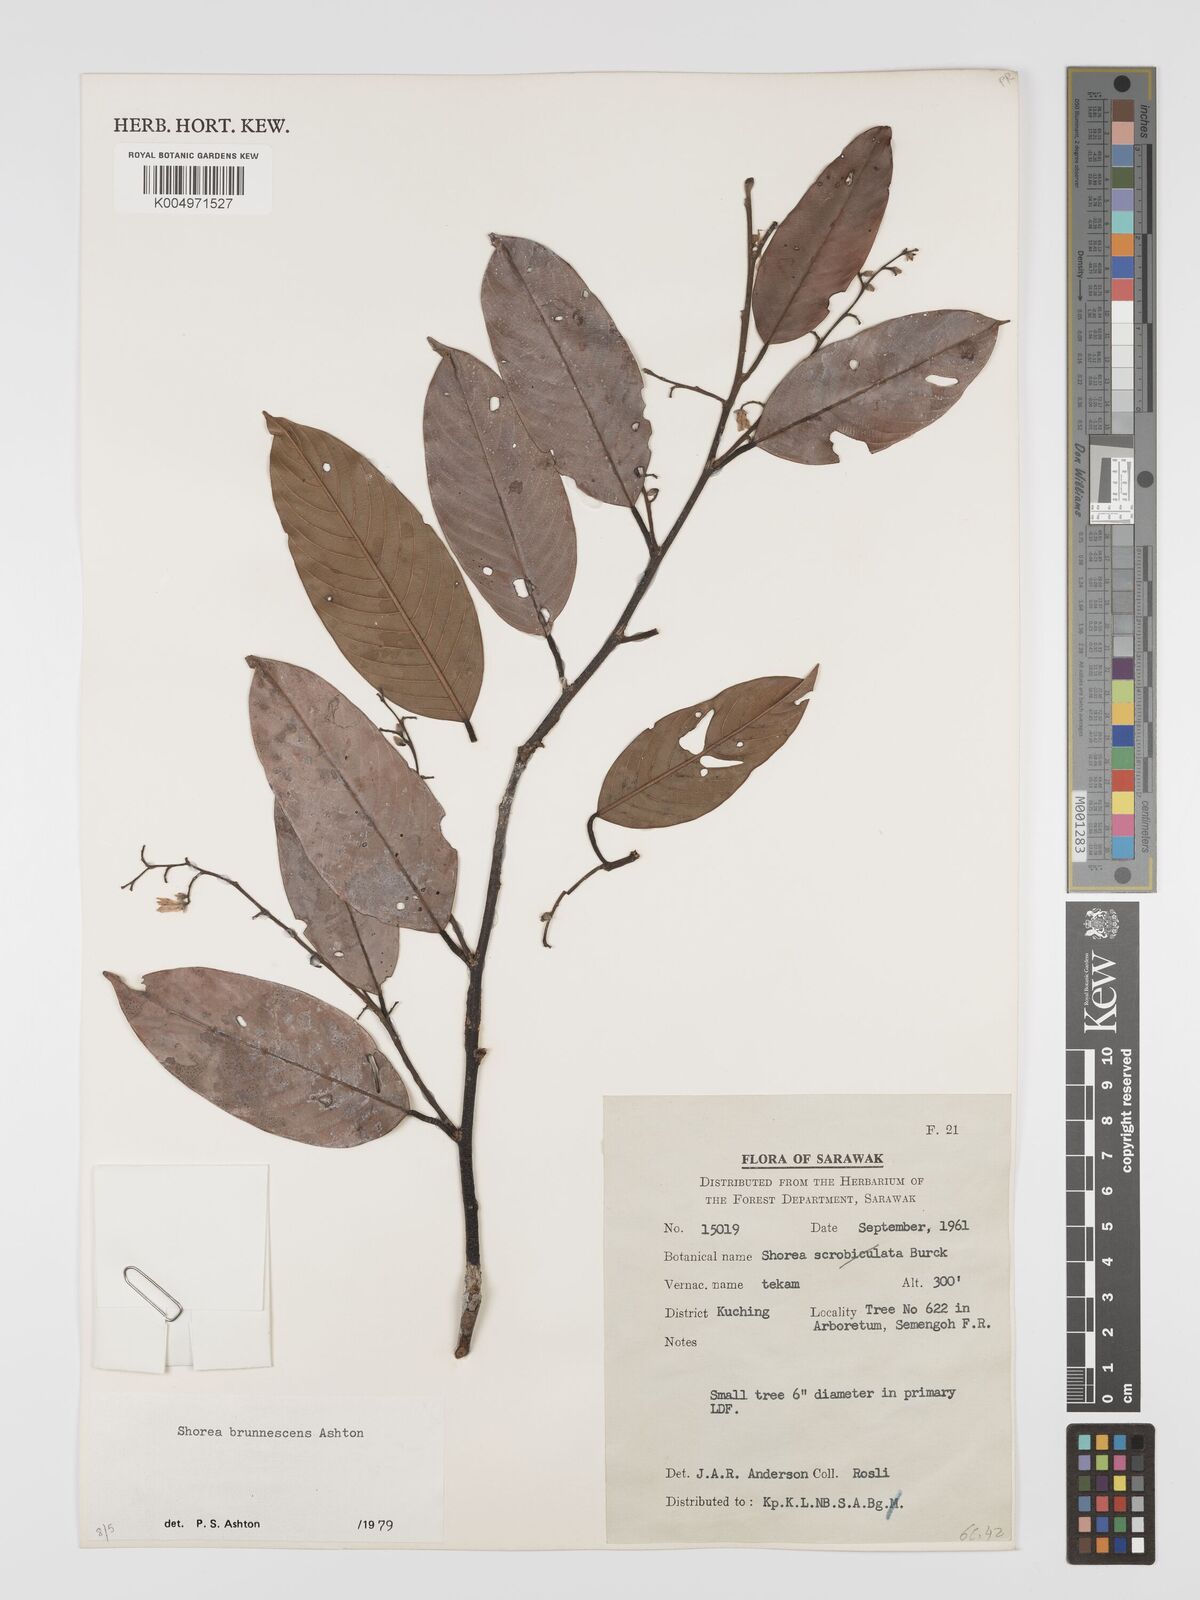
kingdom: Plantae
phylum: Tracheophyta
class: Magnoliopsida
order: Malvales
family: Dipterocarpaceae
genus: Shorea
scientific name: Shorea brunnescens
